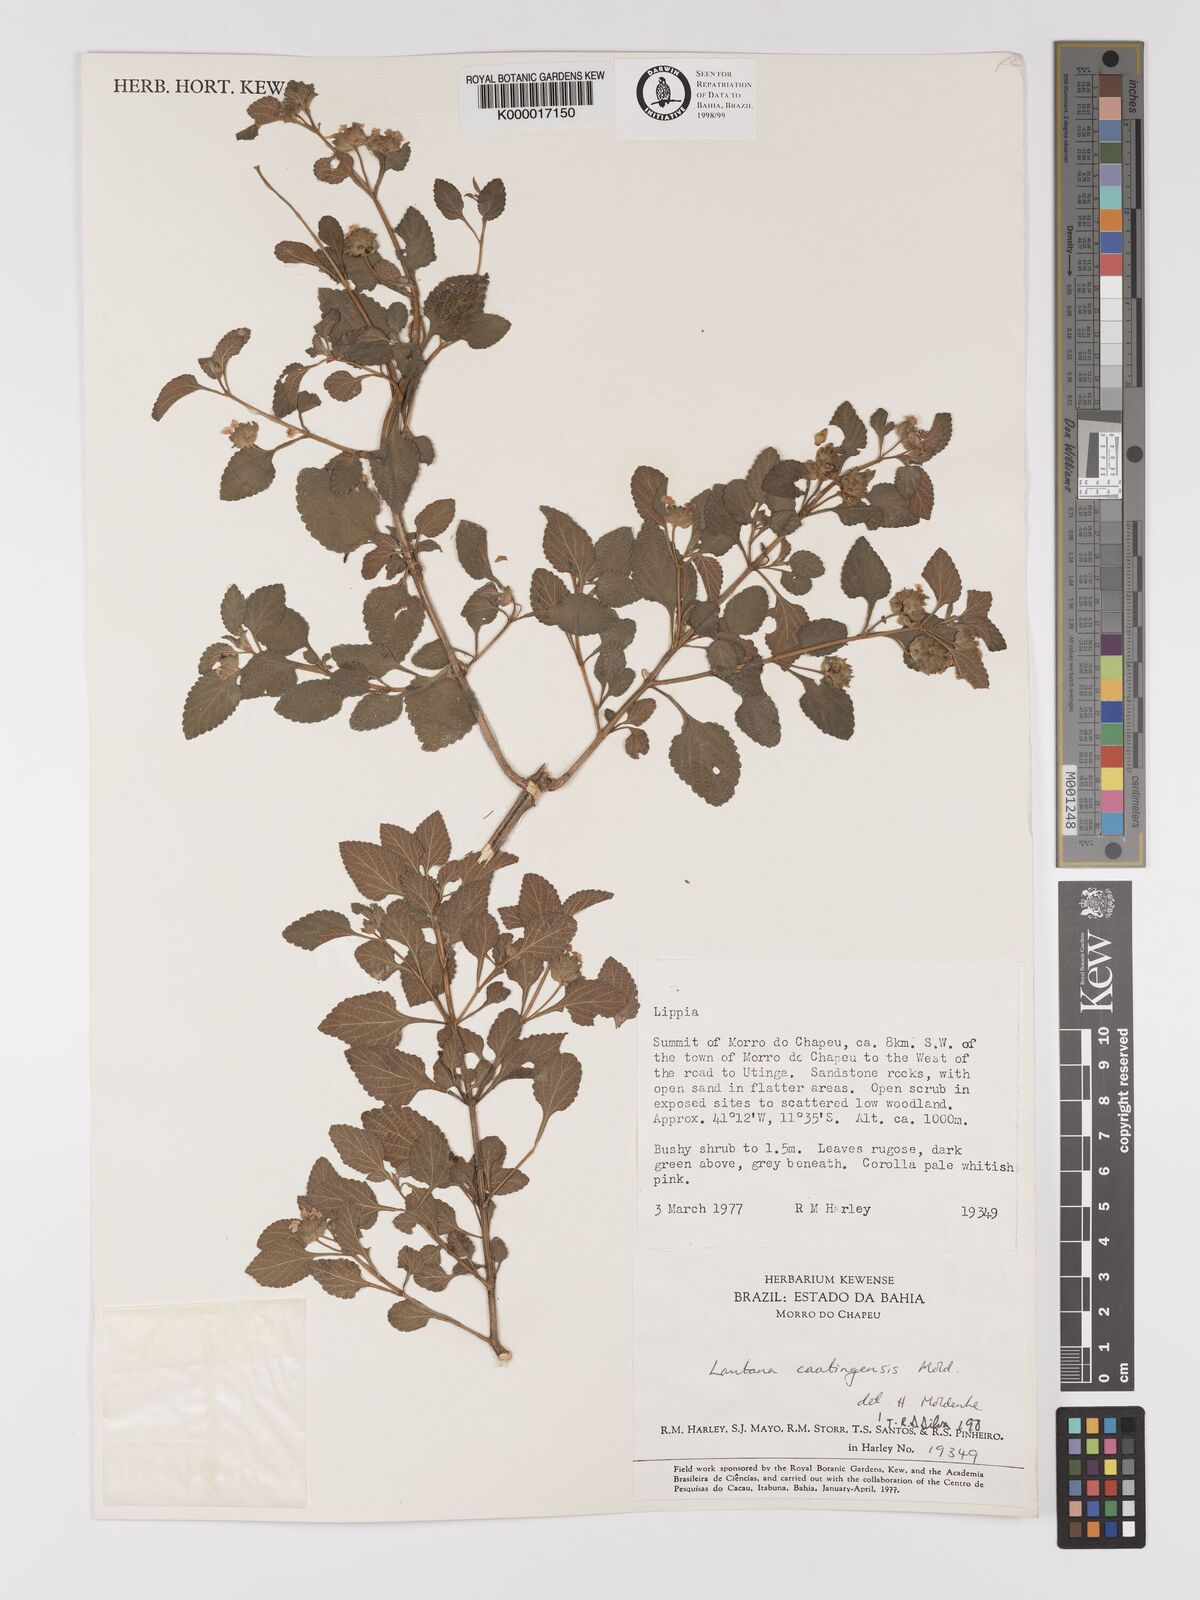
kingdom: Plantae
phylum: Tracheophyta
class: Magnoliopsida
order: Lamiales
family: Verbenaceae
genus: Lantana
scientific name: Lantana caatingensis
